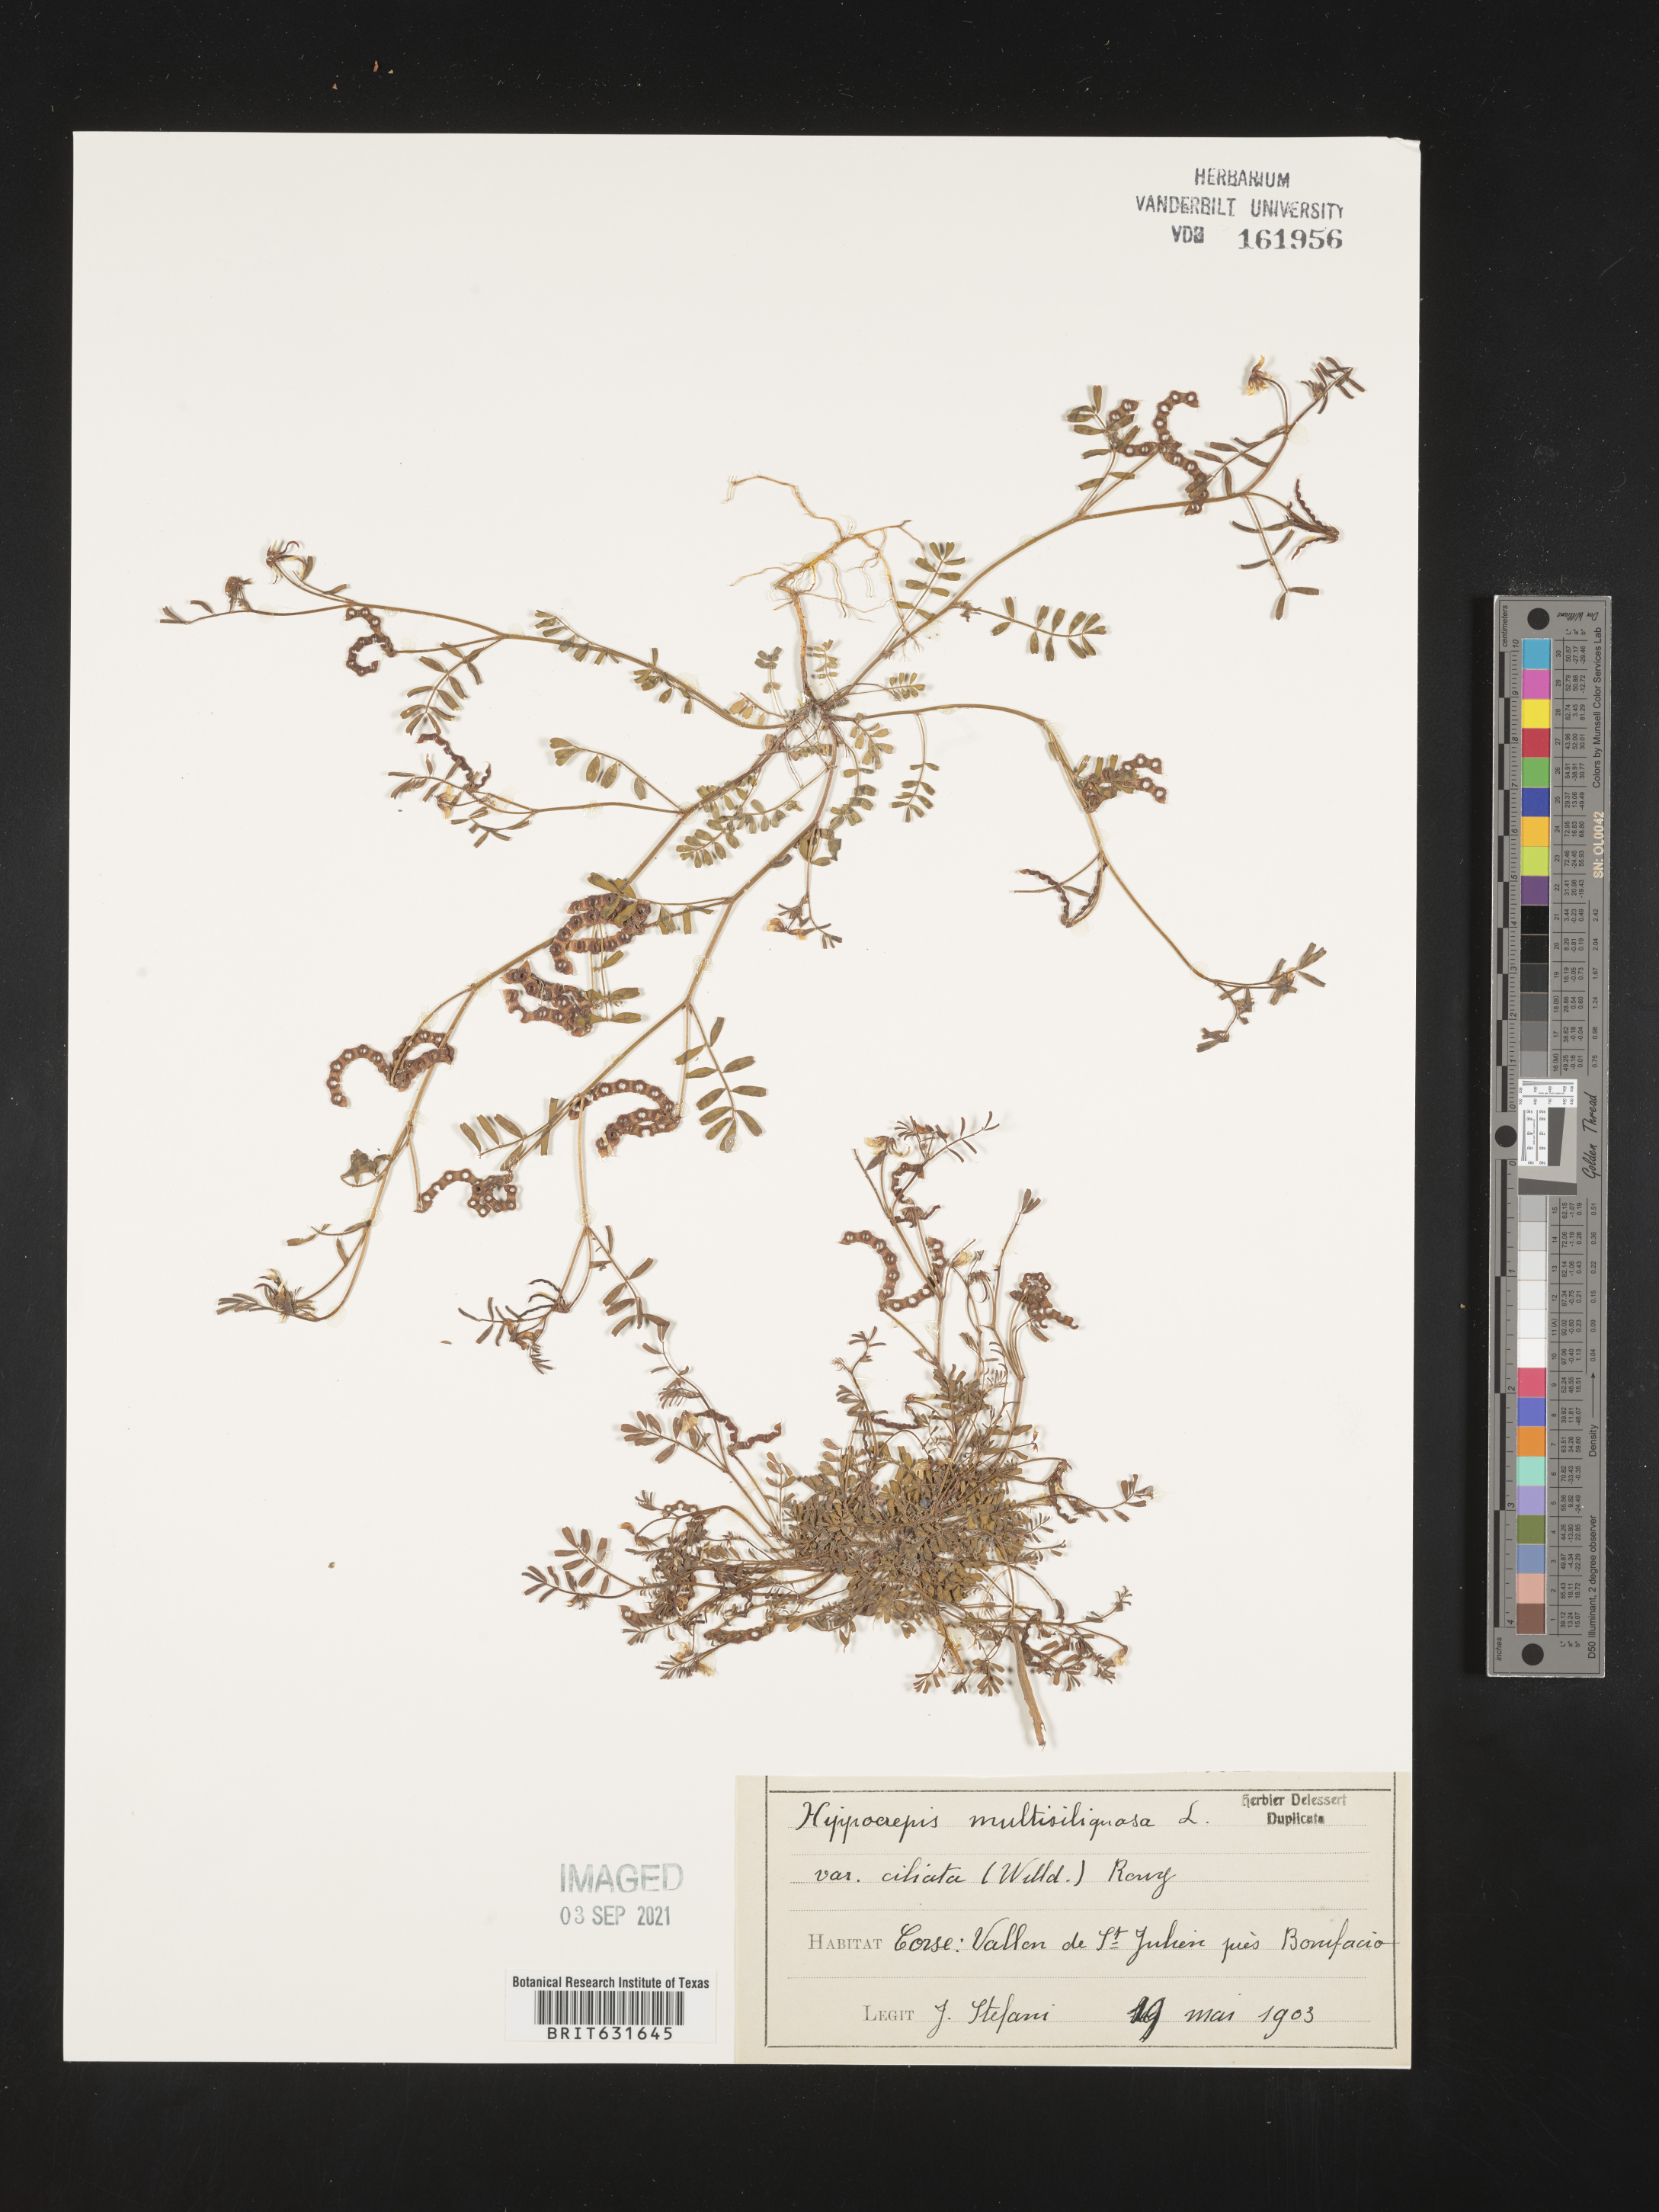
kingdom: Plantae
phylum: Tracheophyta
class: Magnoliopsida
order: Fabales
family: Fabaceae
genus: Hippocrepis
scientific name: Hippocrepis
